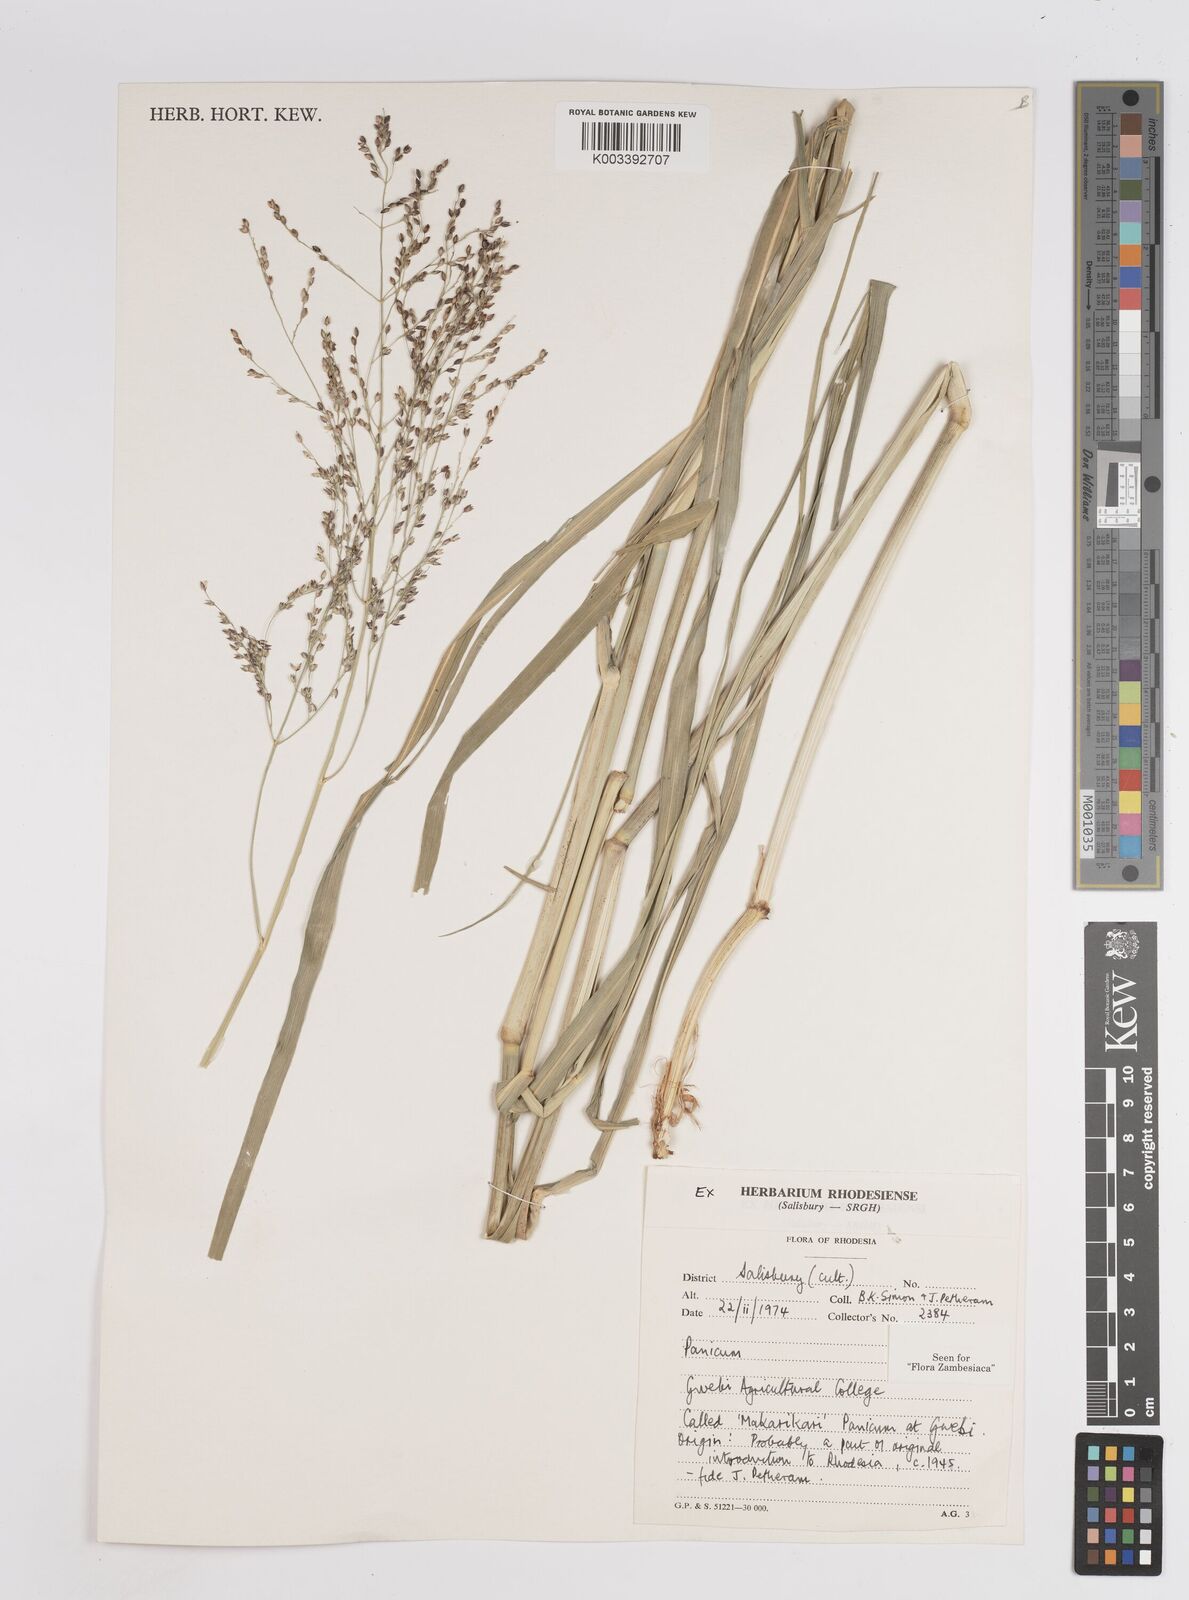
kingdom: Plantae
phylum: Tracheophyta
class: Liliopsida
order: Poales
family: Poaceae
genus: Panicum
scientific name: Panicum coloratum
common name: Kleingrass
